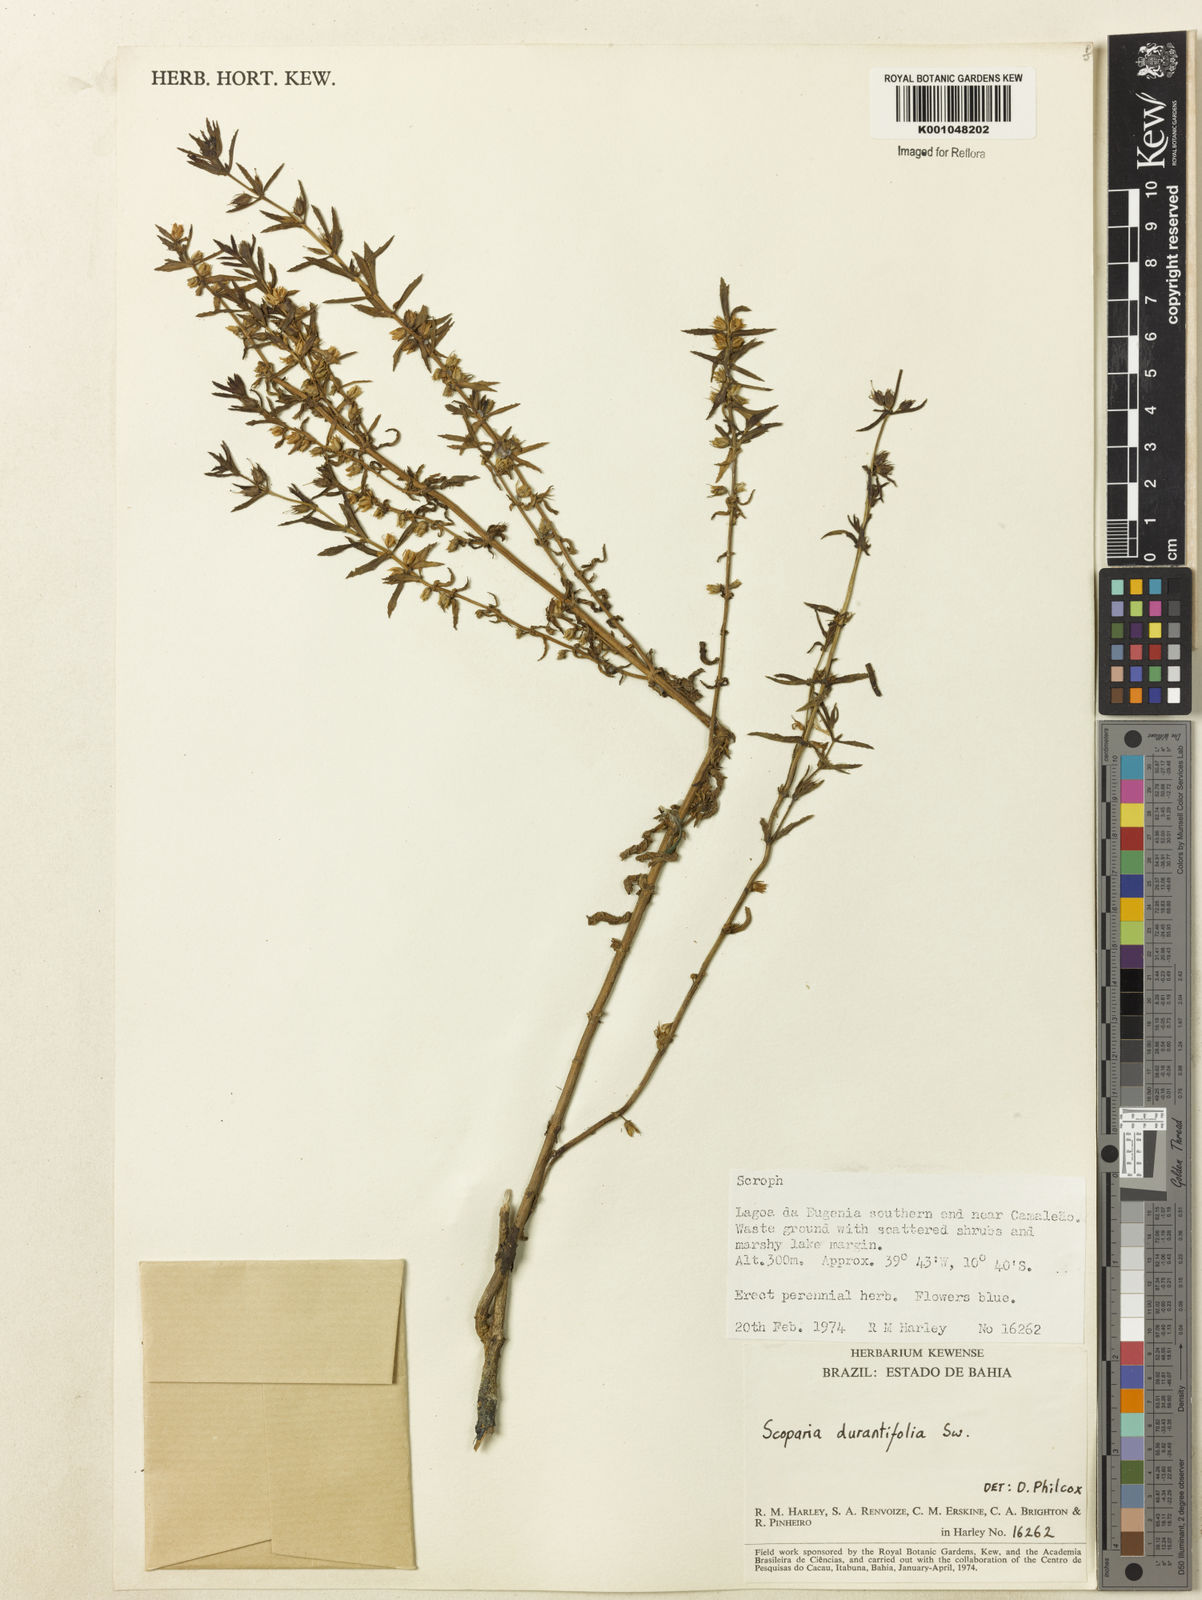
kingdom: Plantae
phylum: Tracheophyta
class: Magnoliopsida
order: Lamiales
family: Plantaginaceae
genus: Stemodia
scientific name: Stemodia durantifolia
